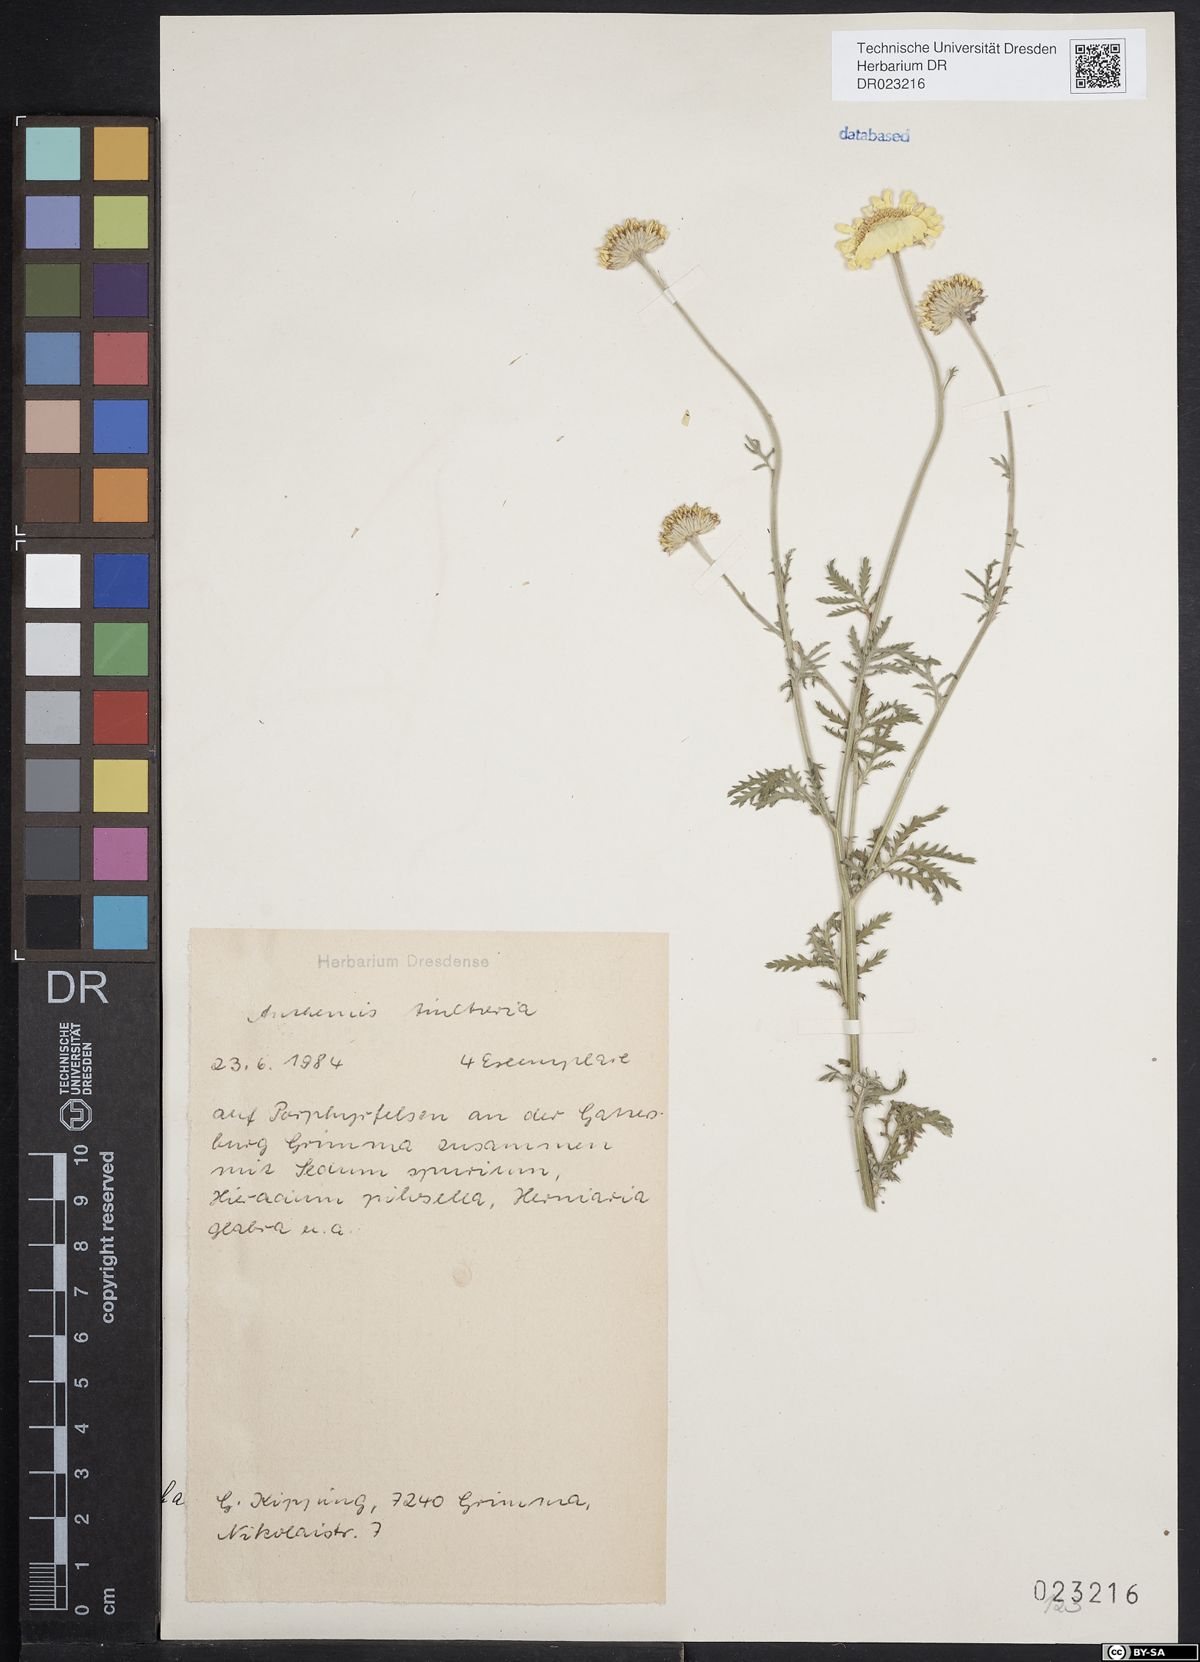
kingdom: Plantae
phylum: Tracheophyta
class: Magnoliopsida
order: Asterales
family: Asteraceae
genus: Cota
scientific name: Cota tinctoria
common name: Golden chamomile
